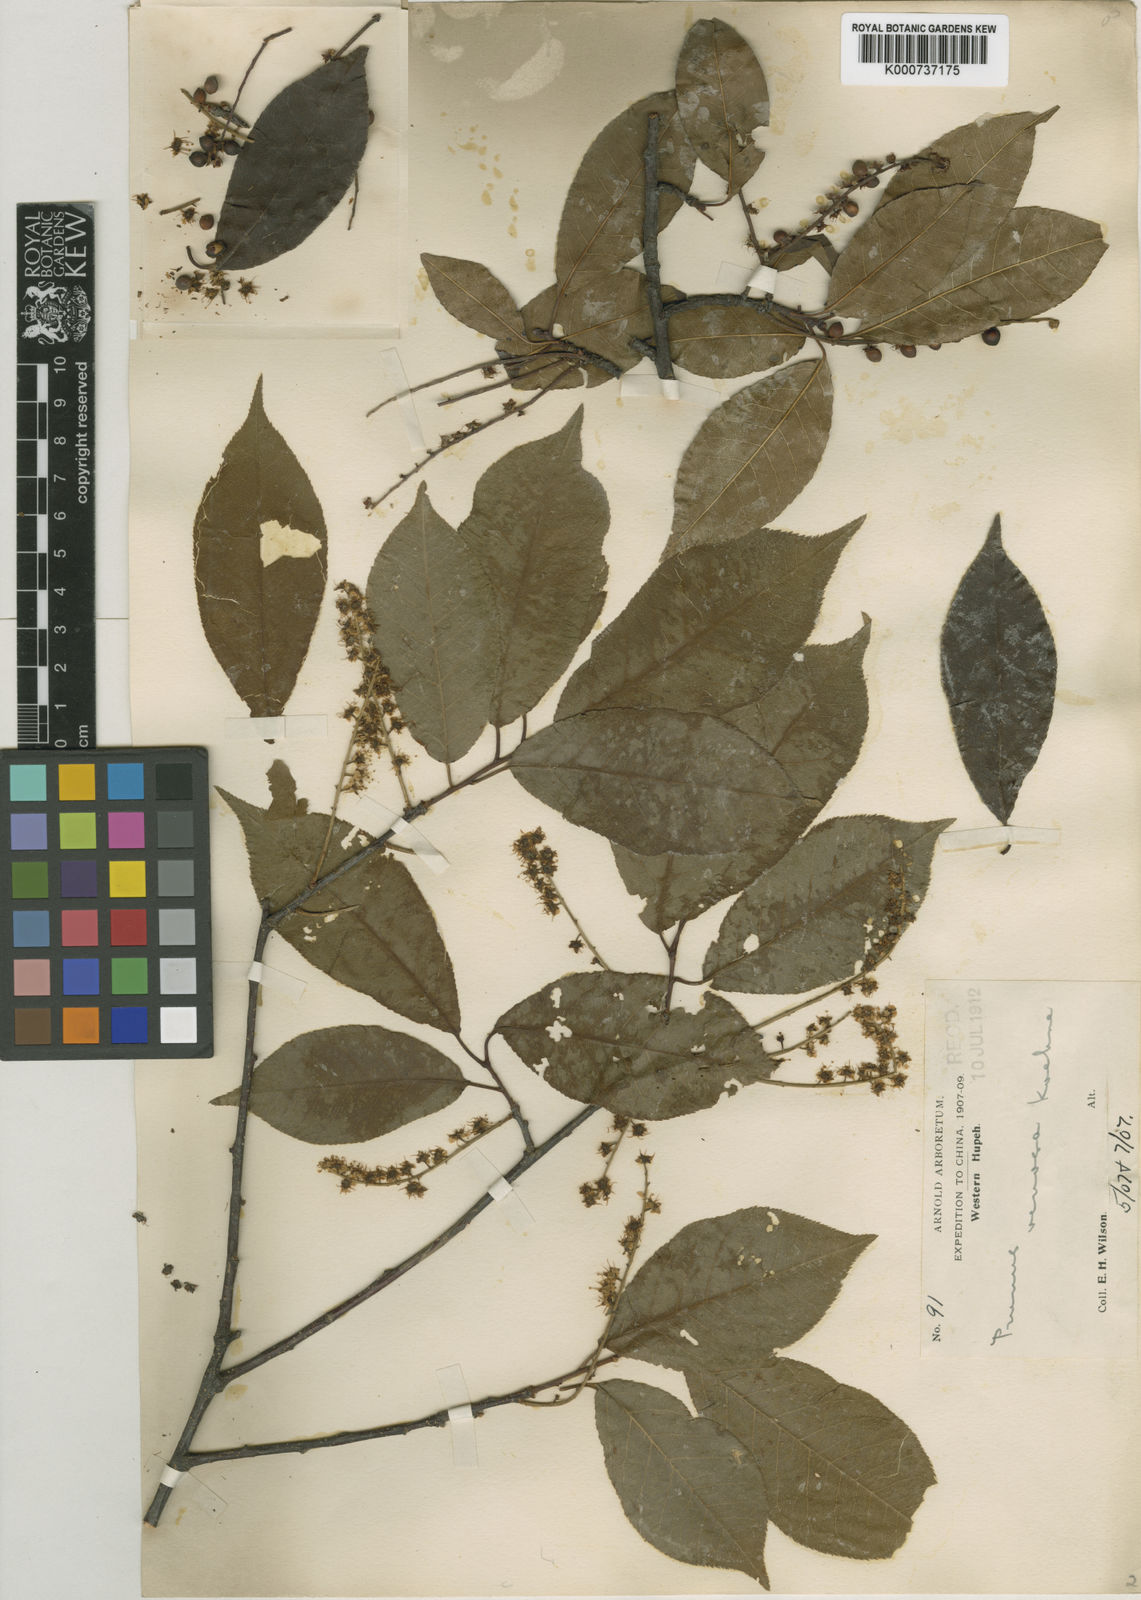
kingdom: Plantae
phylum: Tracheophyta
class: Magnoliopsida
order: Rosales
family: Rosaceae
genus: Prunus
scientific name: Prunus buergeriana
